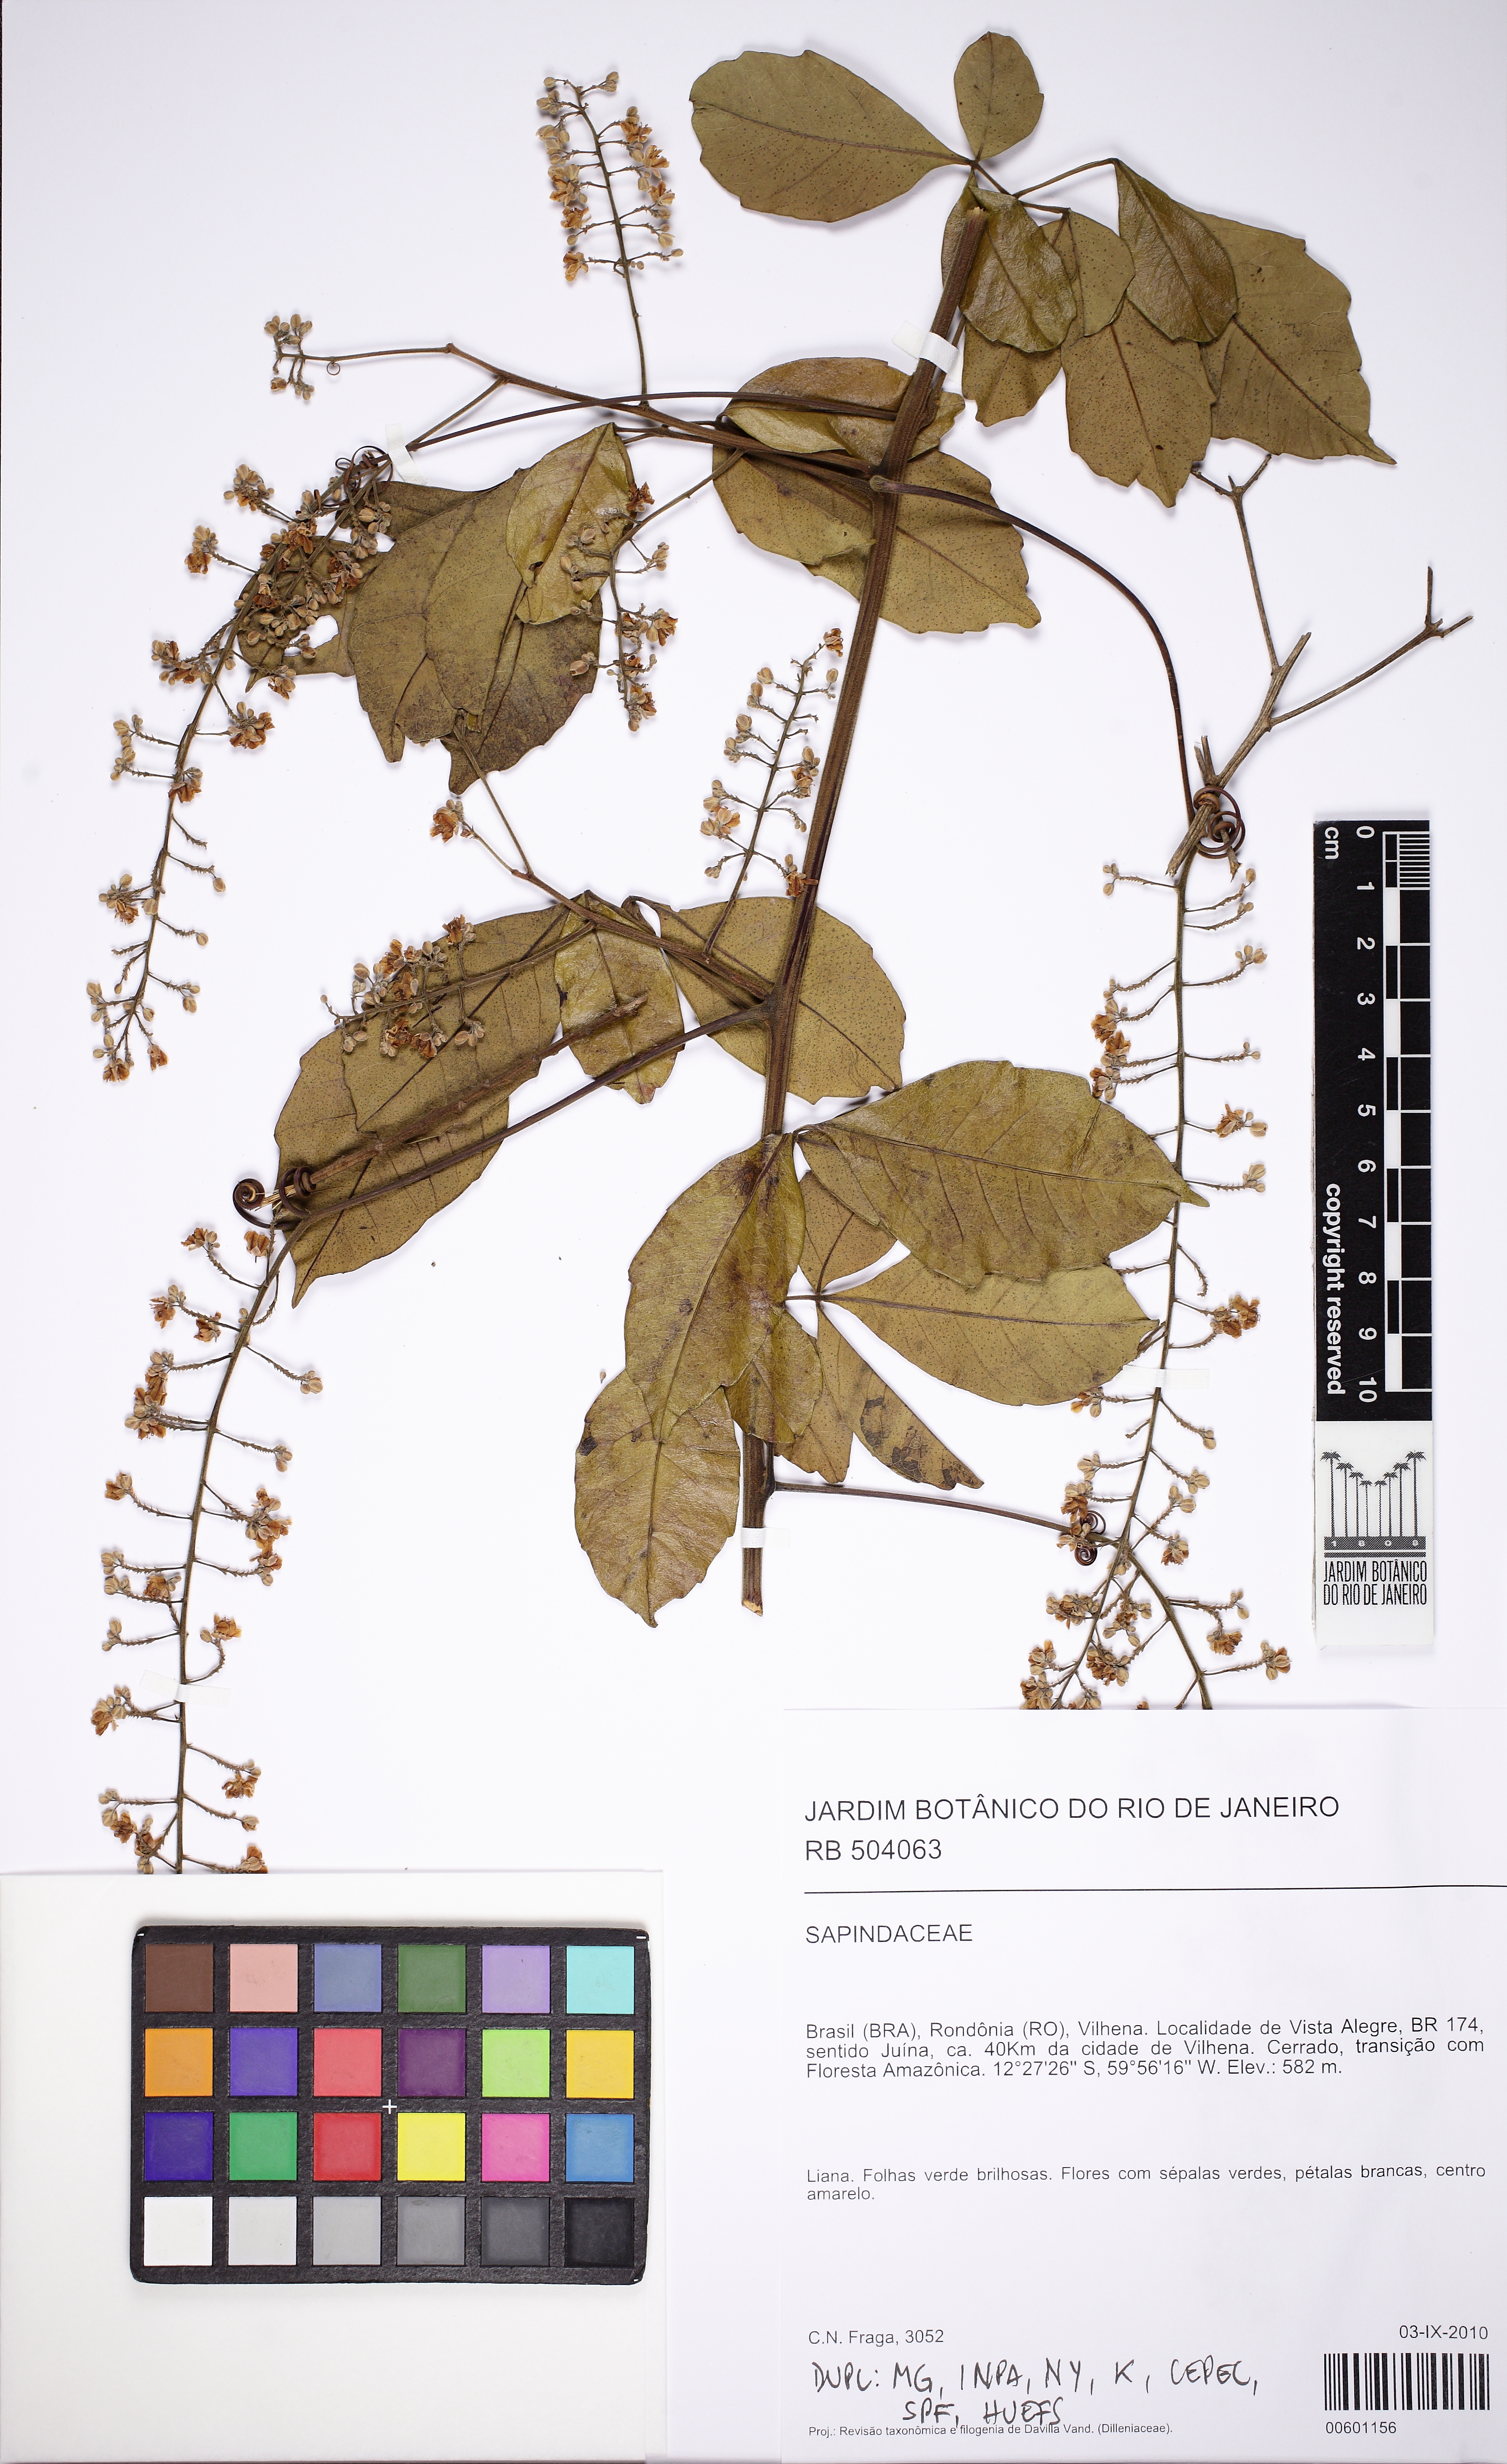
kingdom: Plantae
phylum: Tracheophyta
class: Magnoliopsida
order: Sapindales
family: Sapindaceae
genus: Serjania
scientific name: Serjania lethalis
